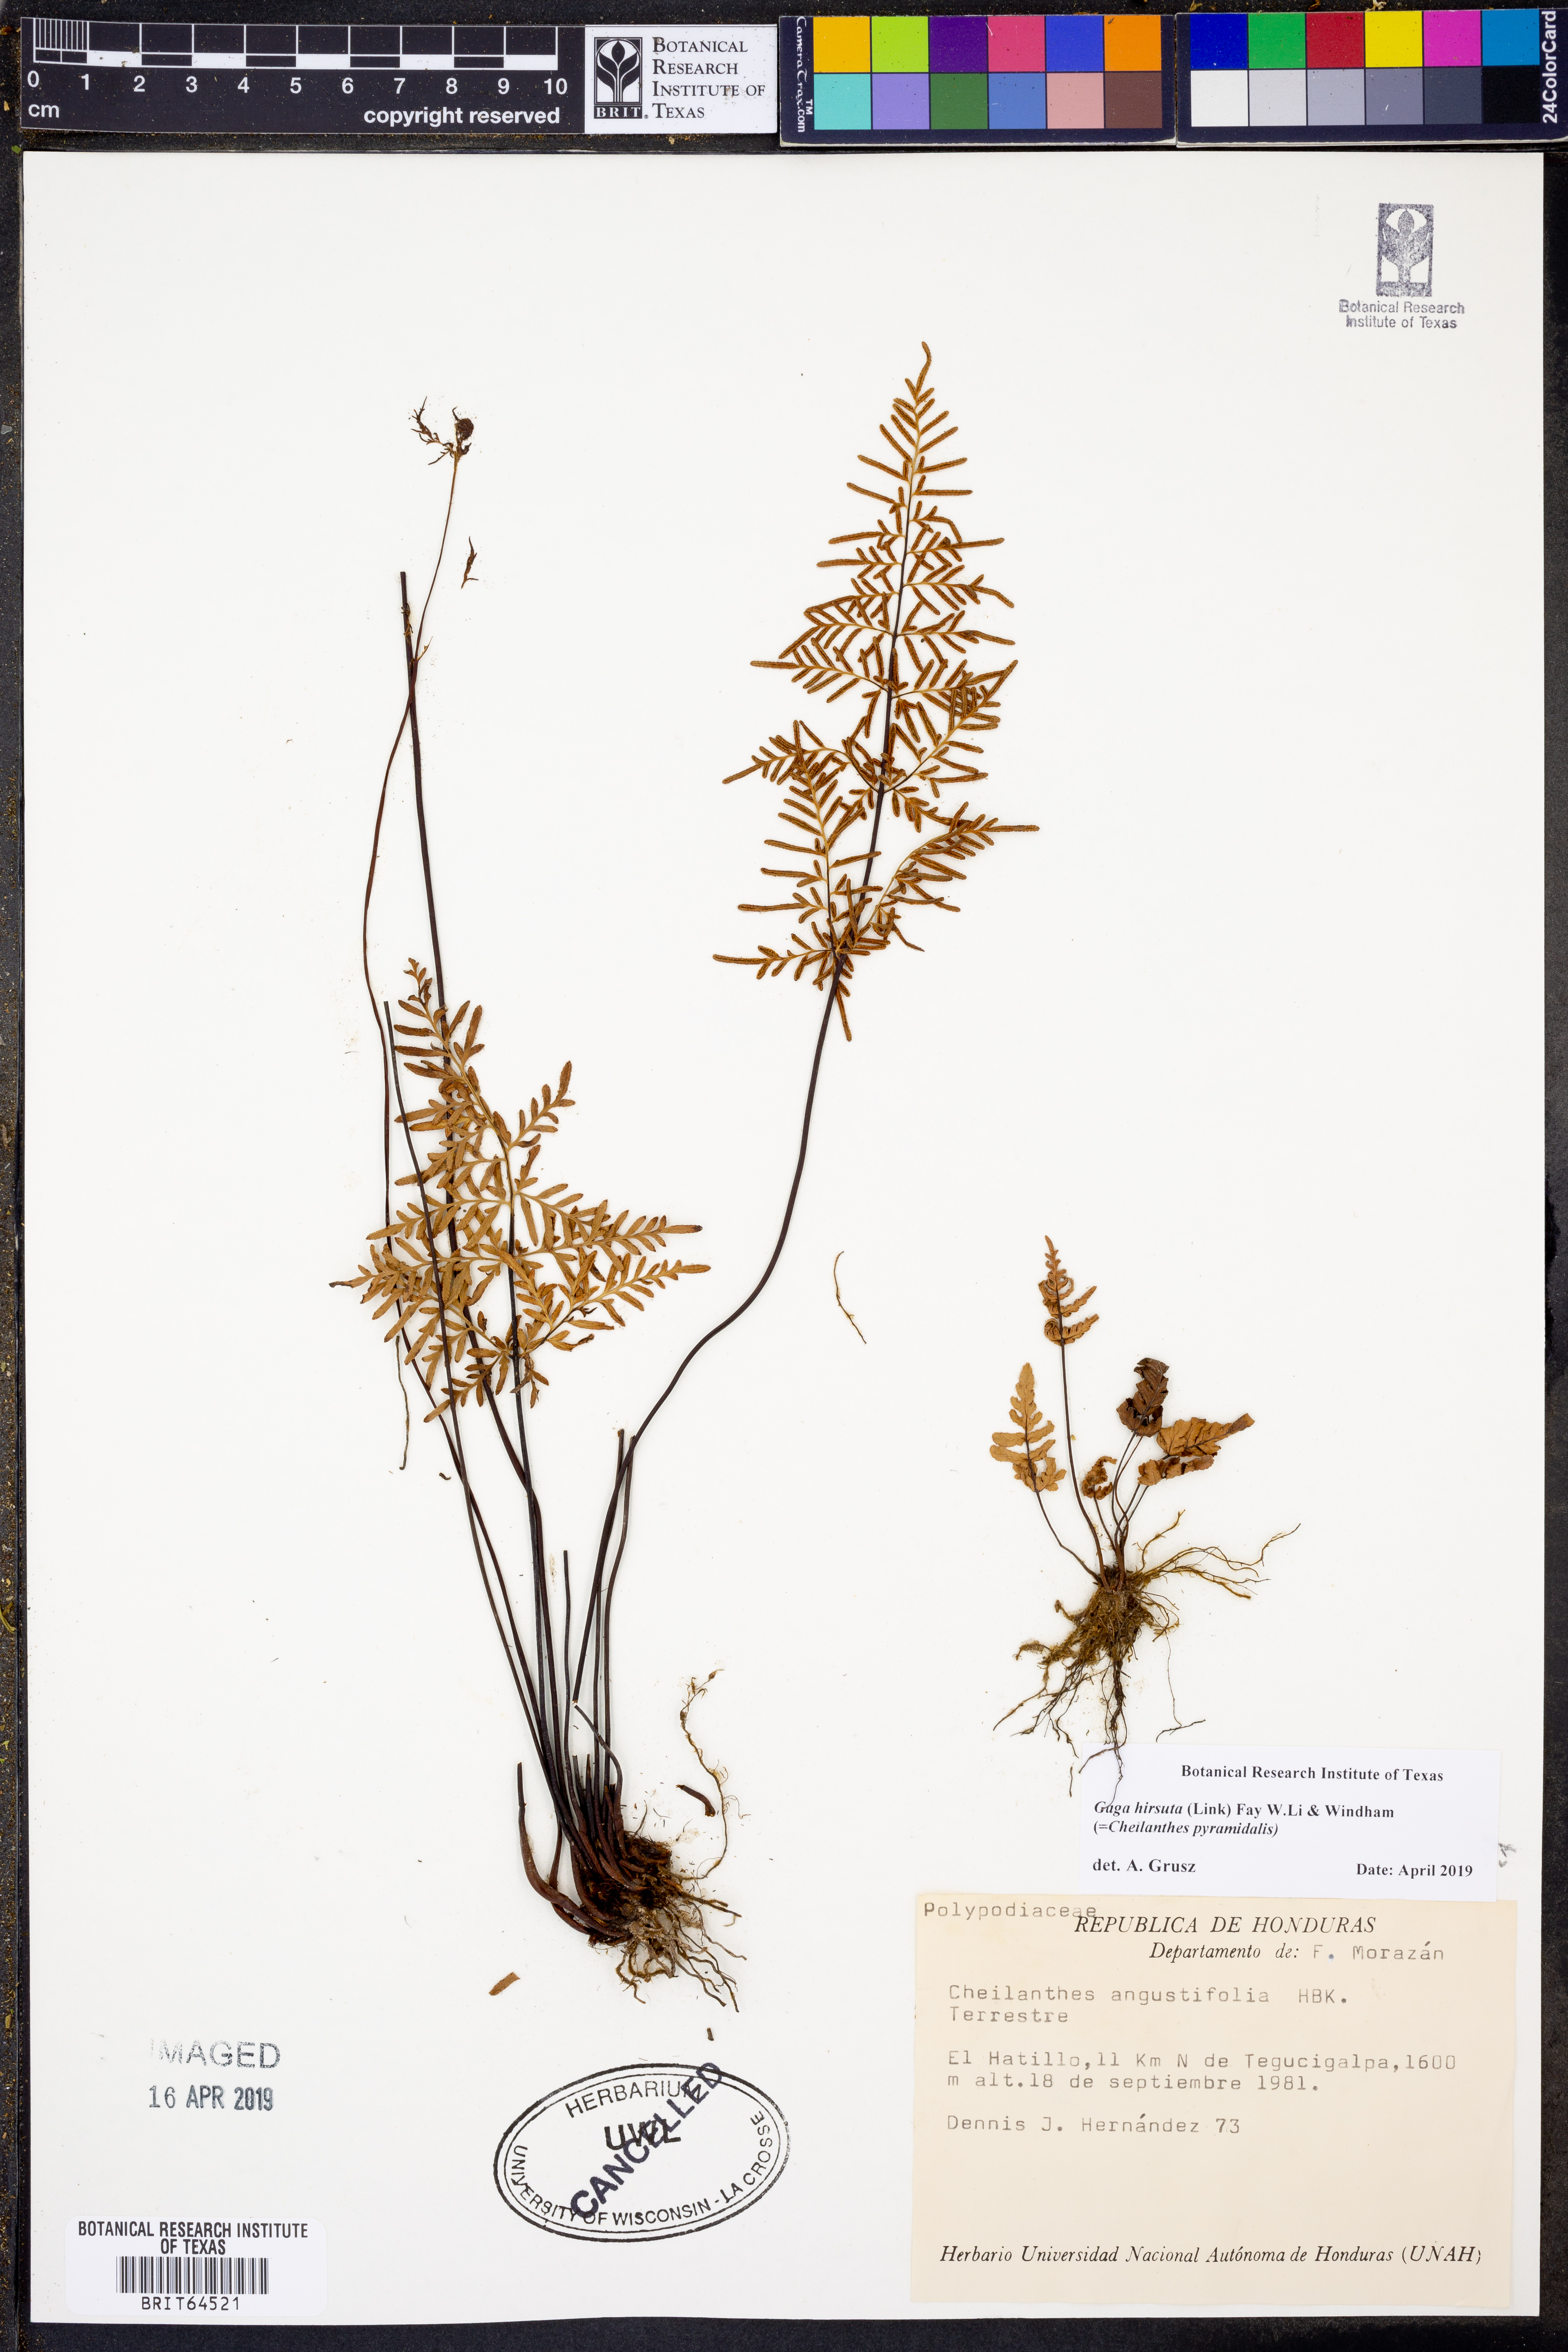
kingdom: Plantae
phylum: Tracheophyta
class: Polypodiopsida
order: Polypodiales
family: Pteridaceae
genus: Gaga
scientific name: Gaga hirsuta
